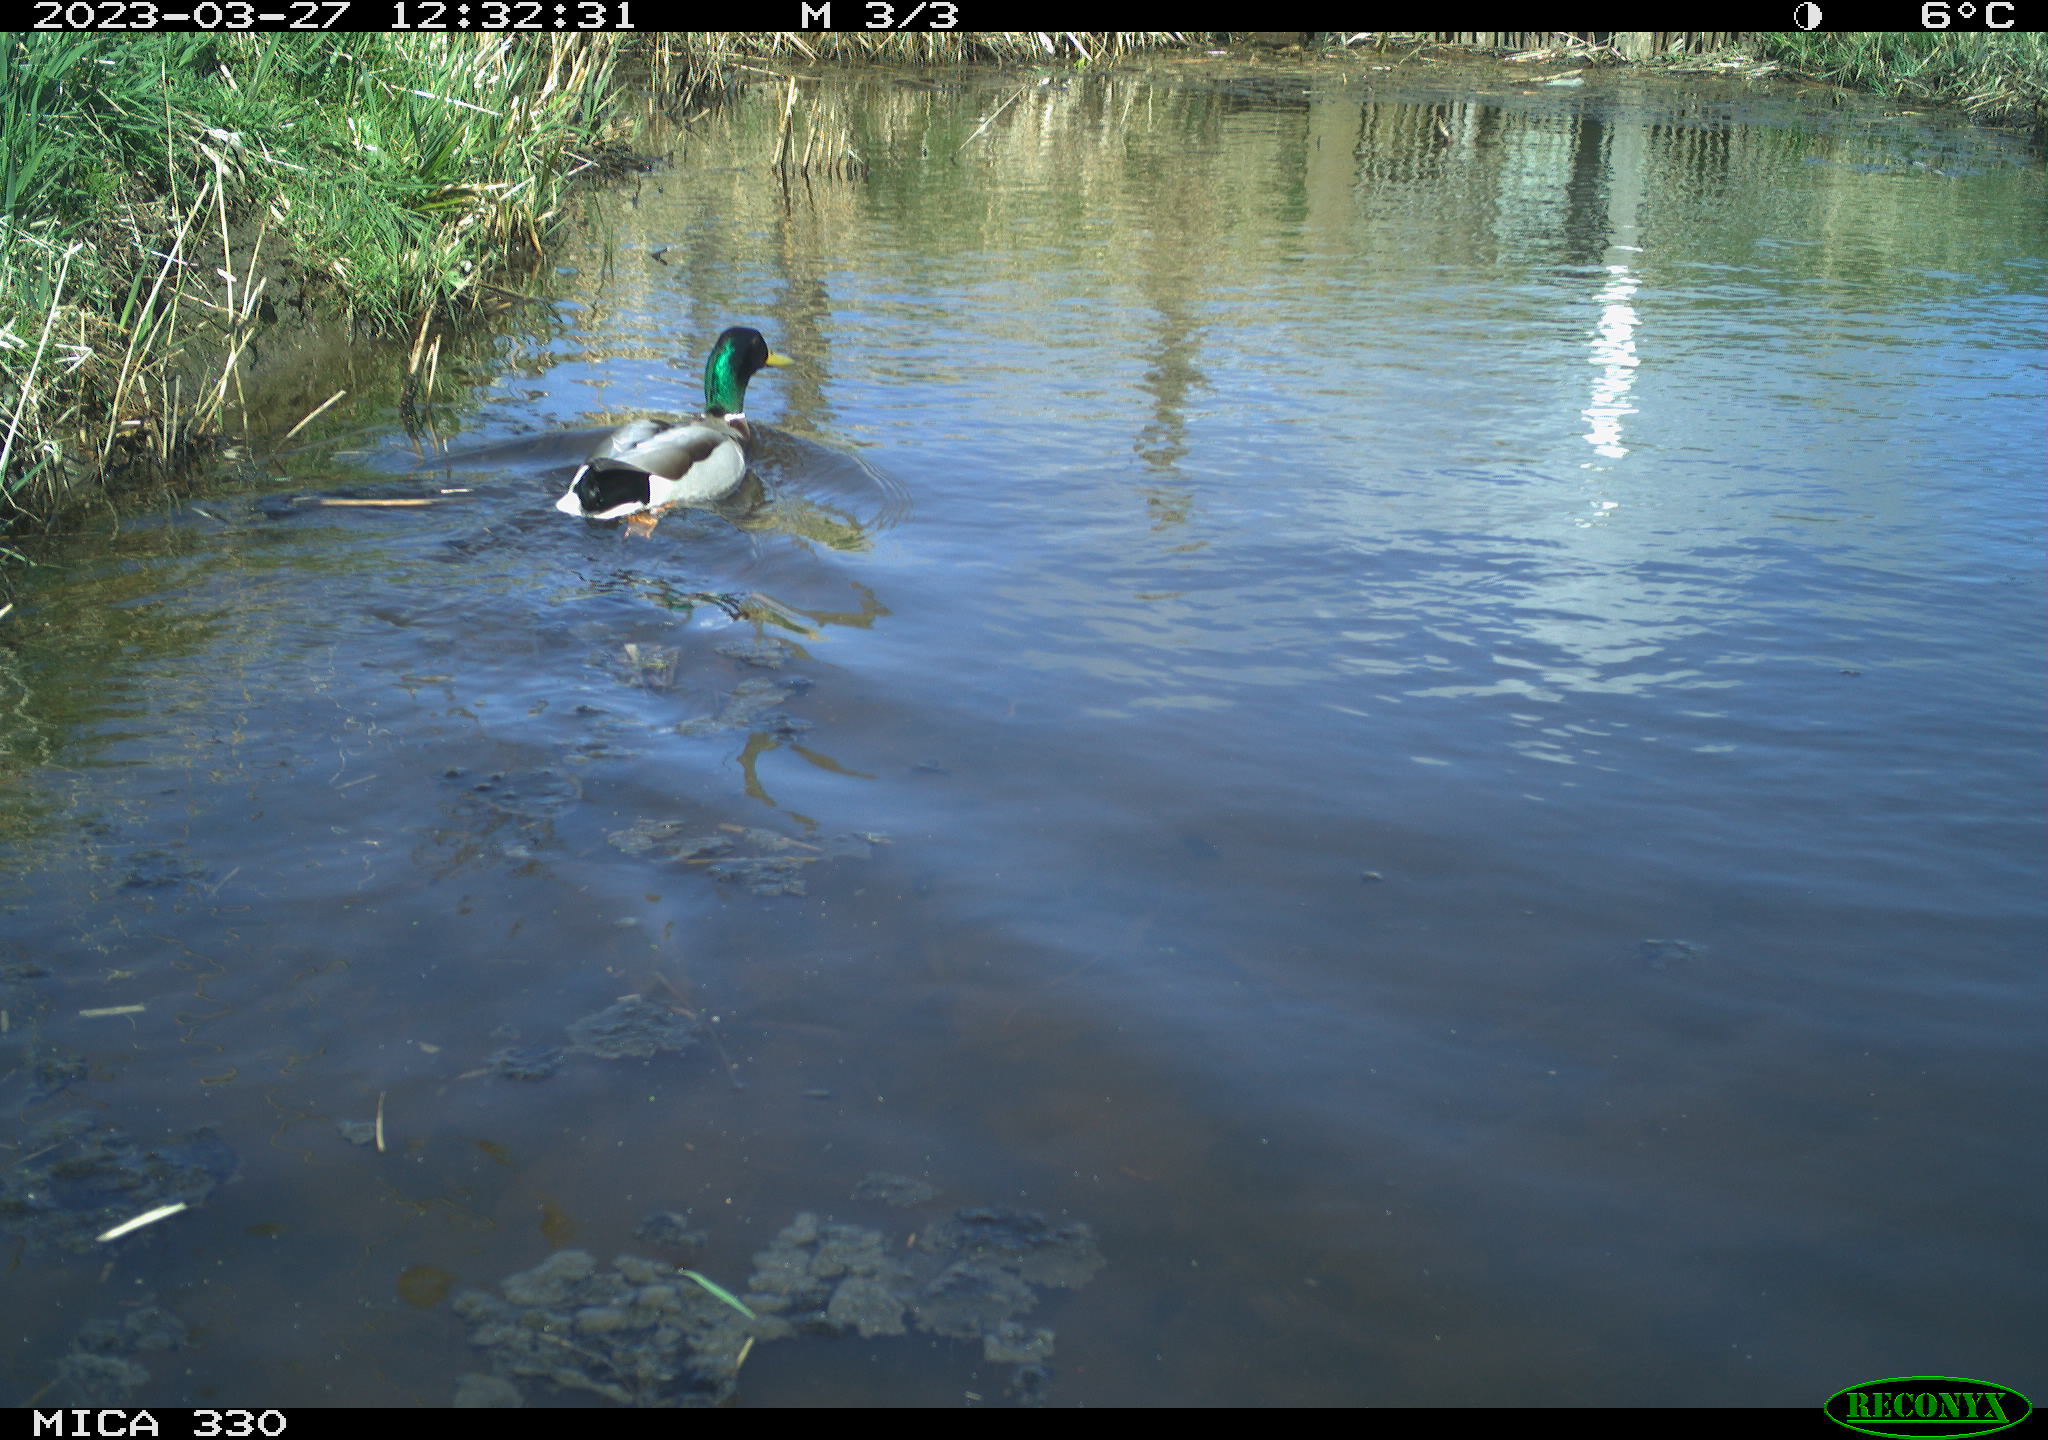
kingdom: Animalia
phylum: Chordata
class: Aves
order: Anseriformes
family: Anatidae
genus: Anas
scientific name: Anas
